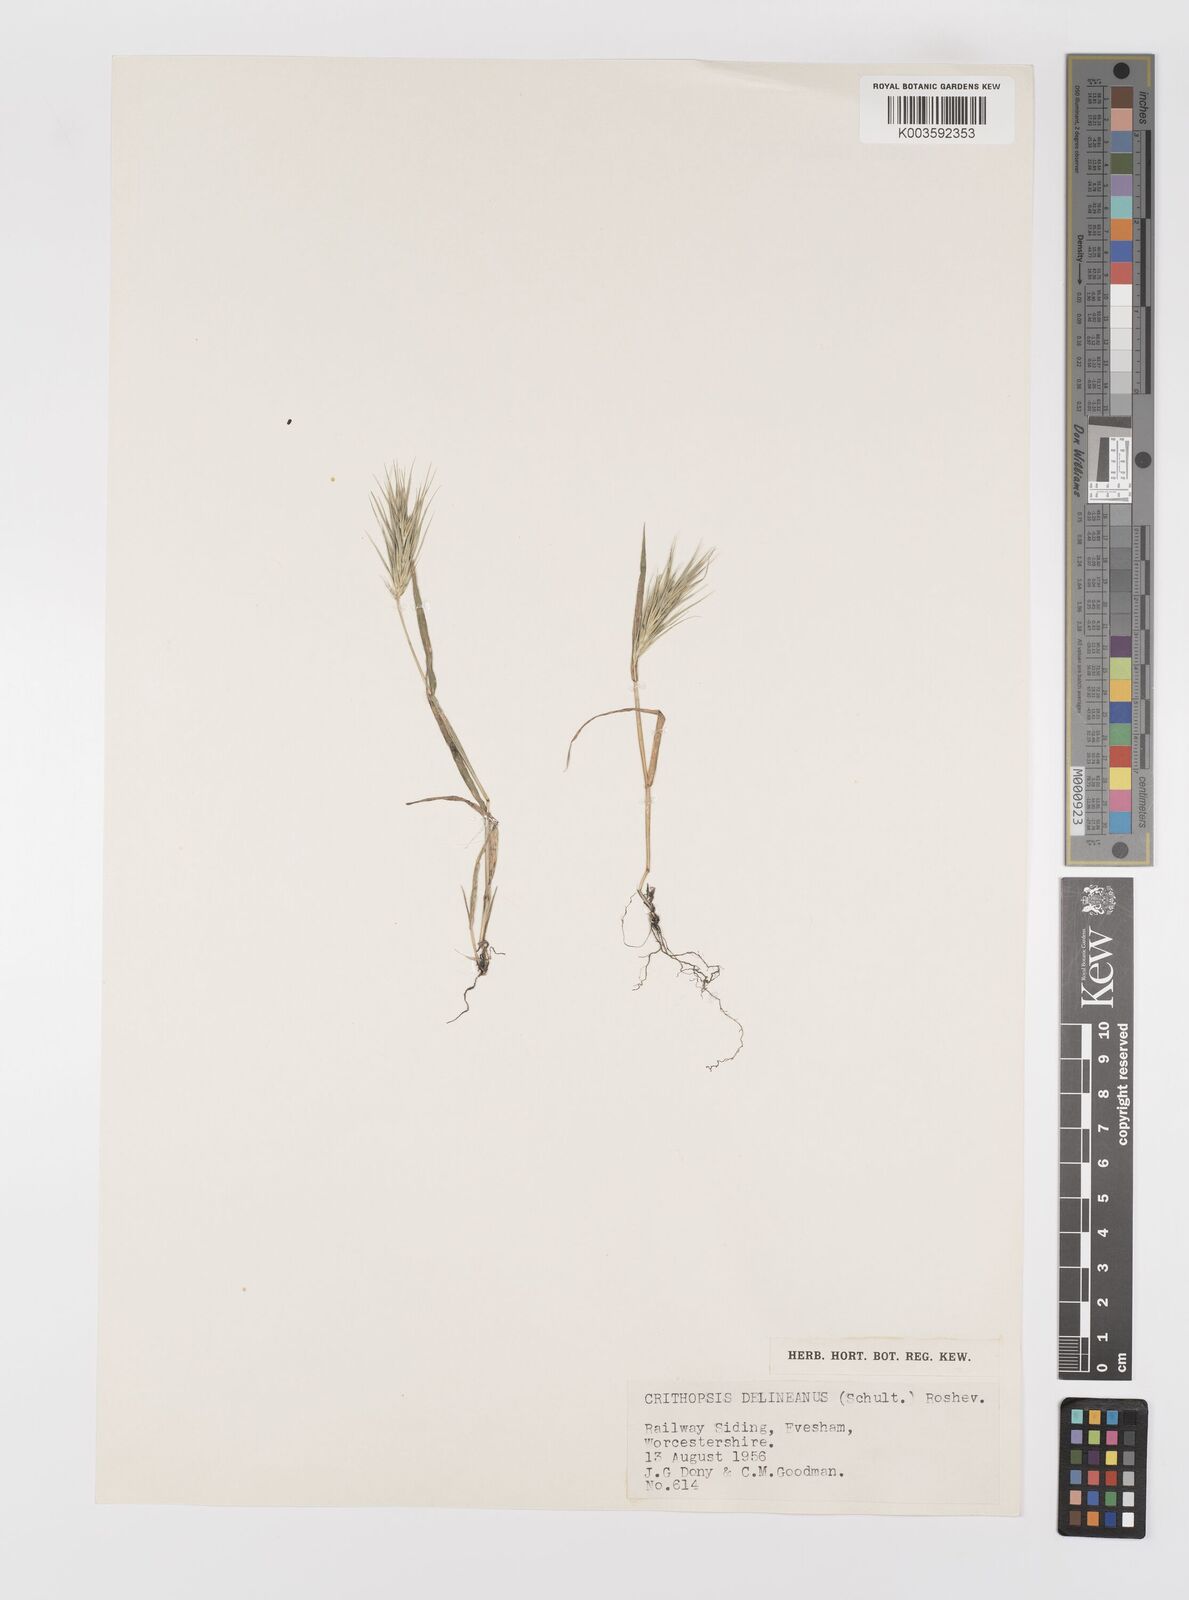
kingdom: Plantae
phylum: Tracheophyta
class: Liliopsida
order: Poales
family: Poaceae
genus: Crithopsis
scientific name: Crithopsis delileana
